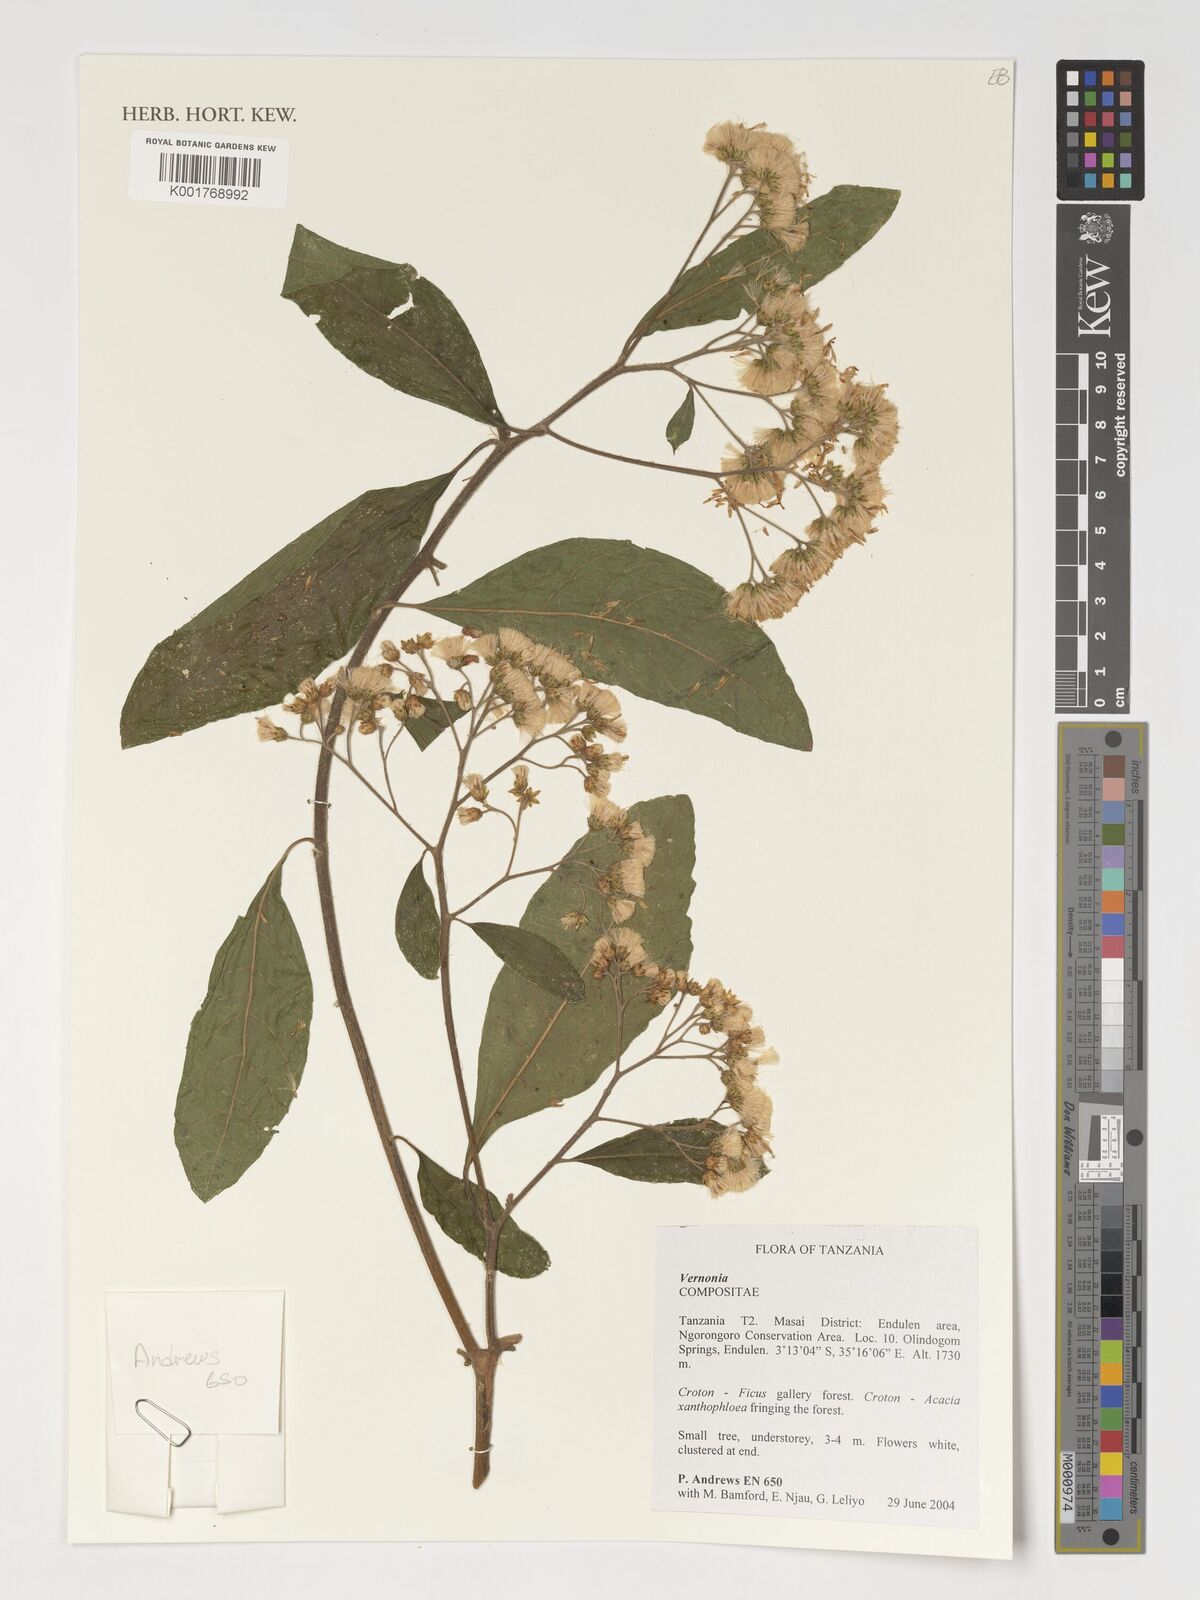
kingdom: Plantae
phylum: Tracheophyta
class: Magnoliopsida
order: Asterales
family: Asteraceae
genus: Vernonia
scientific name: Vernonia
